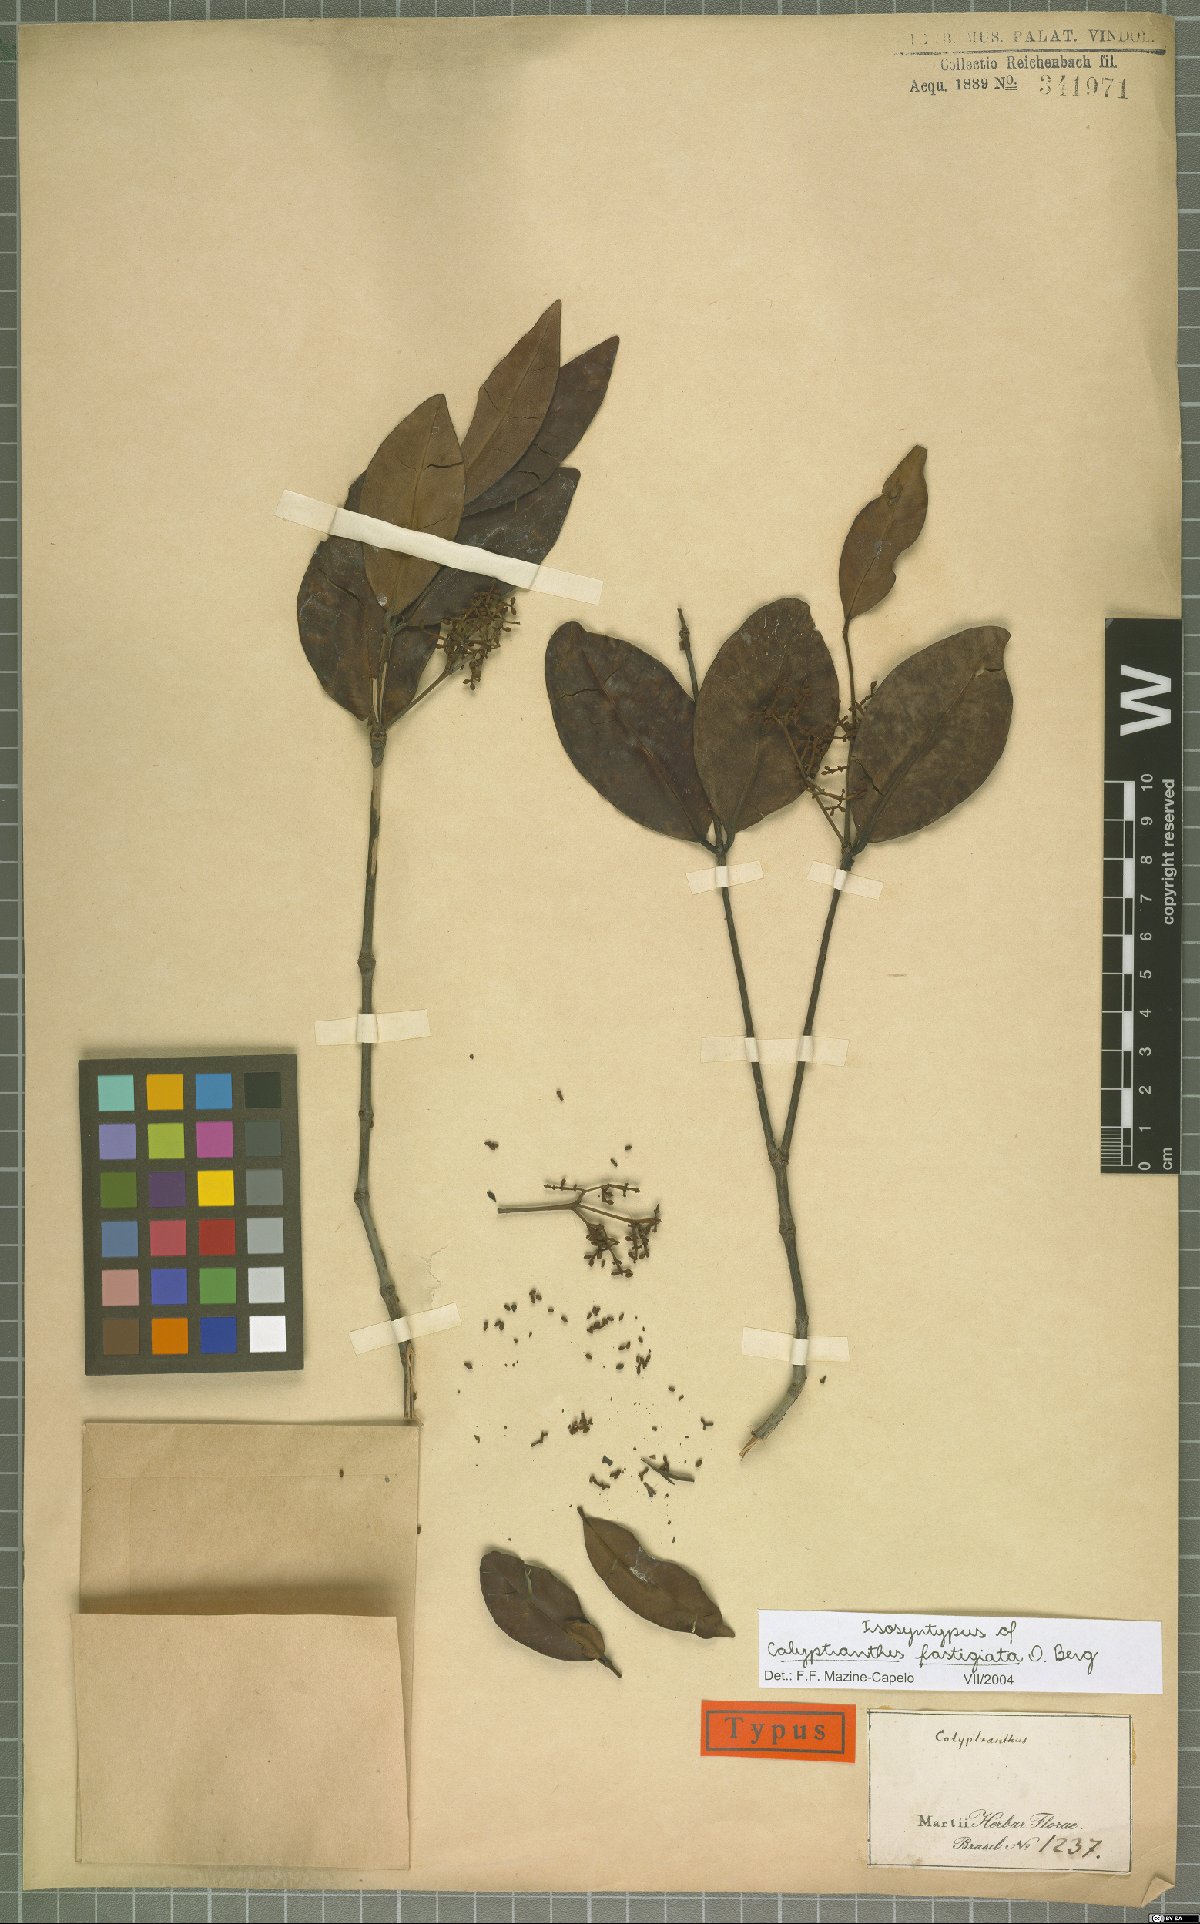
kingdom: Plantae
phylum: Tracheophyta
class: Magnoliopsida
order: Myrtales
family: Myrtaceae
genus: Myrcia
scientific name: Myrcia loranthifolia
